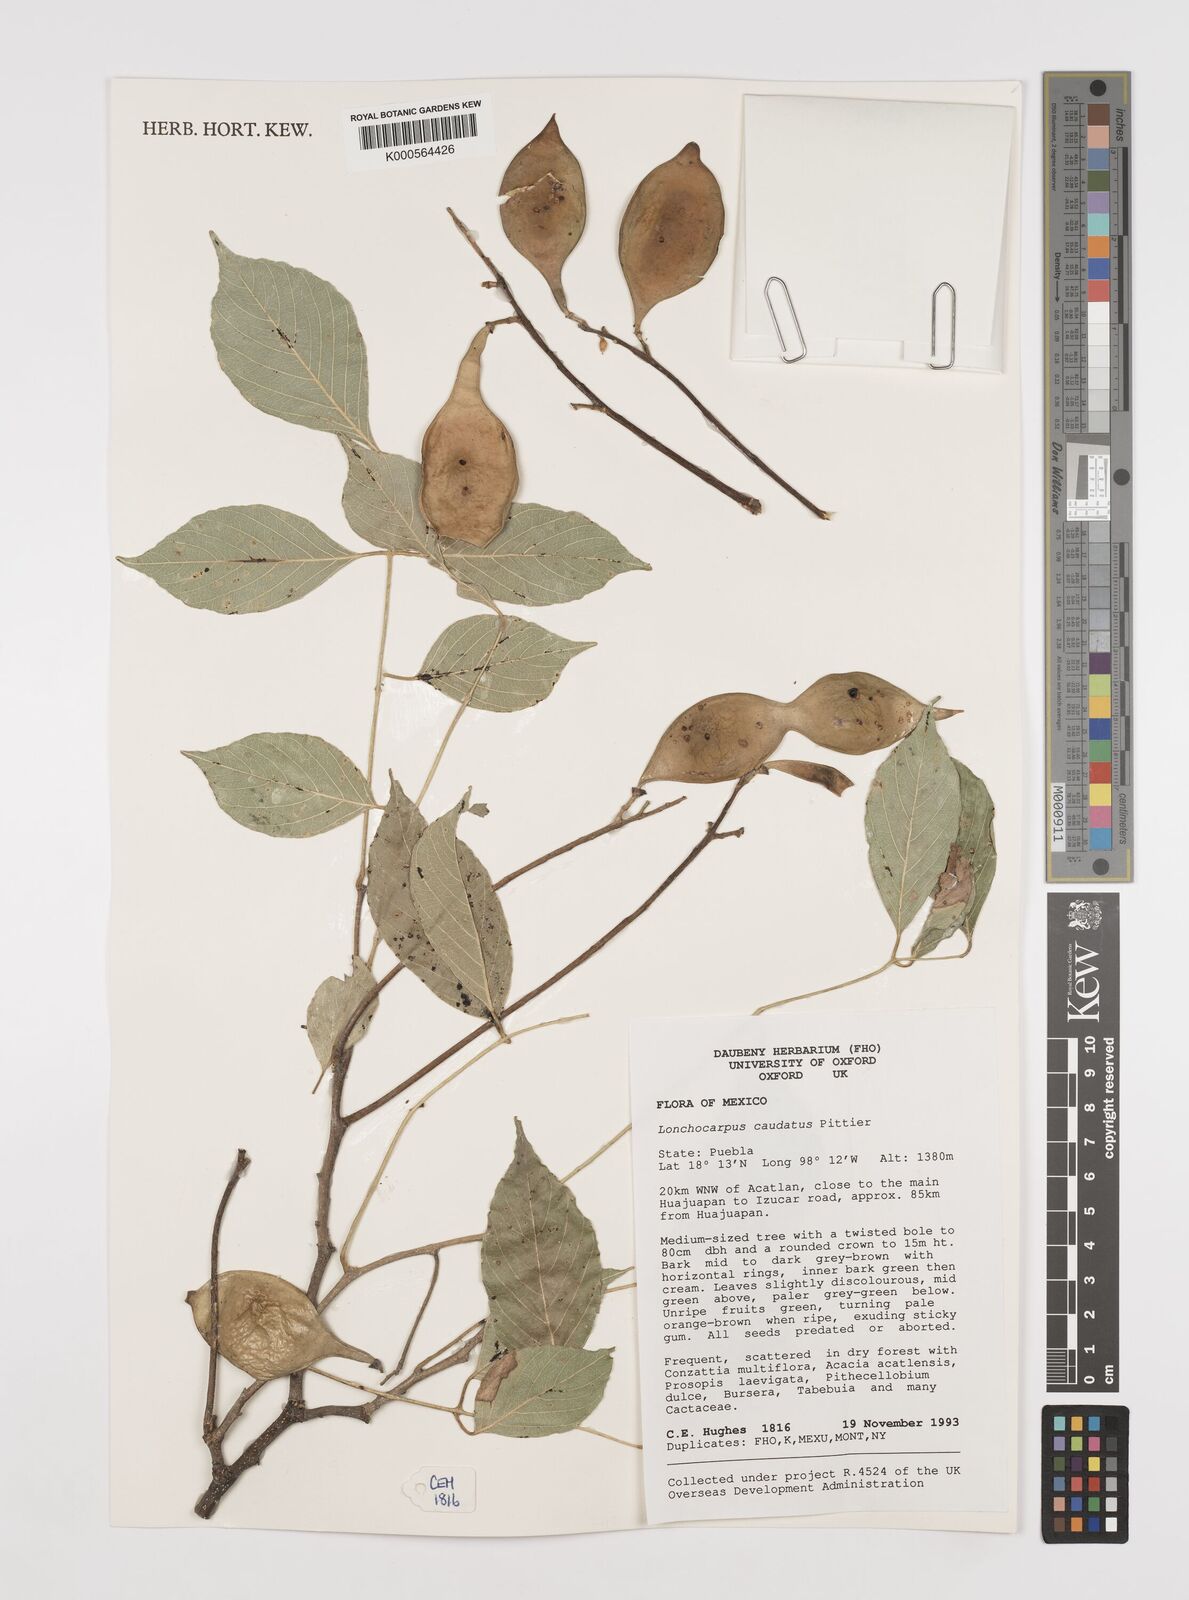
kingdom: Plantae
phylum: Tracheophyta
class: Magnoliopsida
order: Fabales
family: Fabaceae
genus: Lonchocarpus
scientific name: Lonchocarpus caudatus
